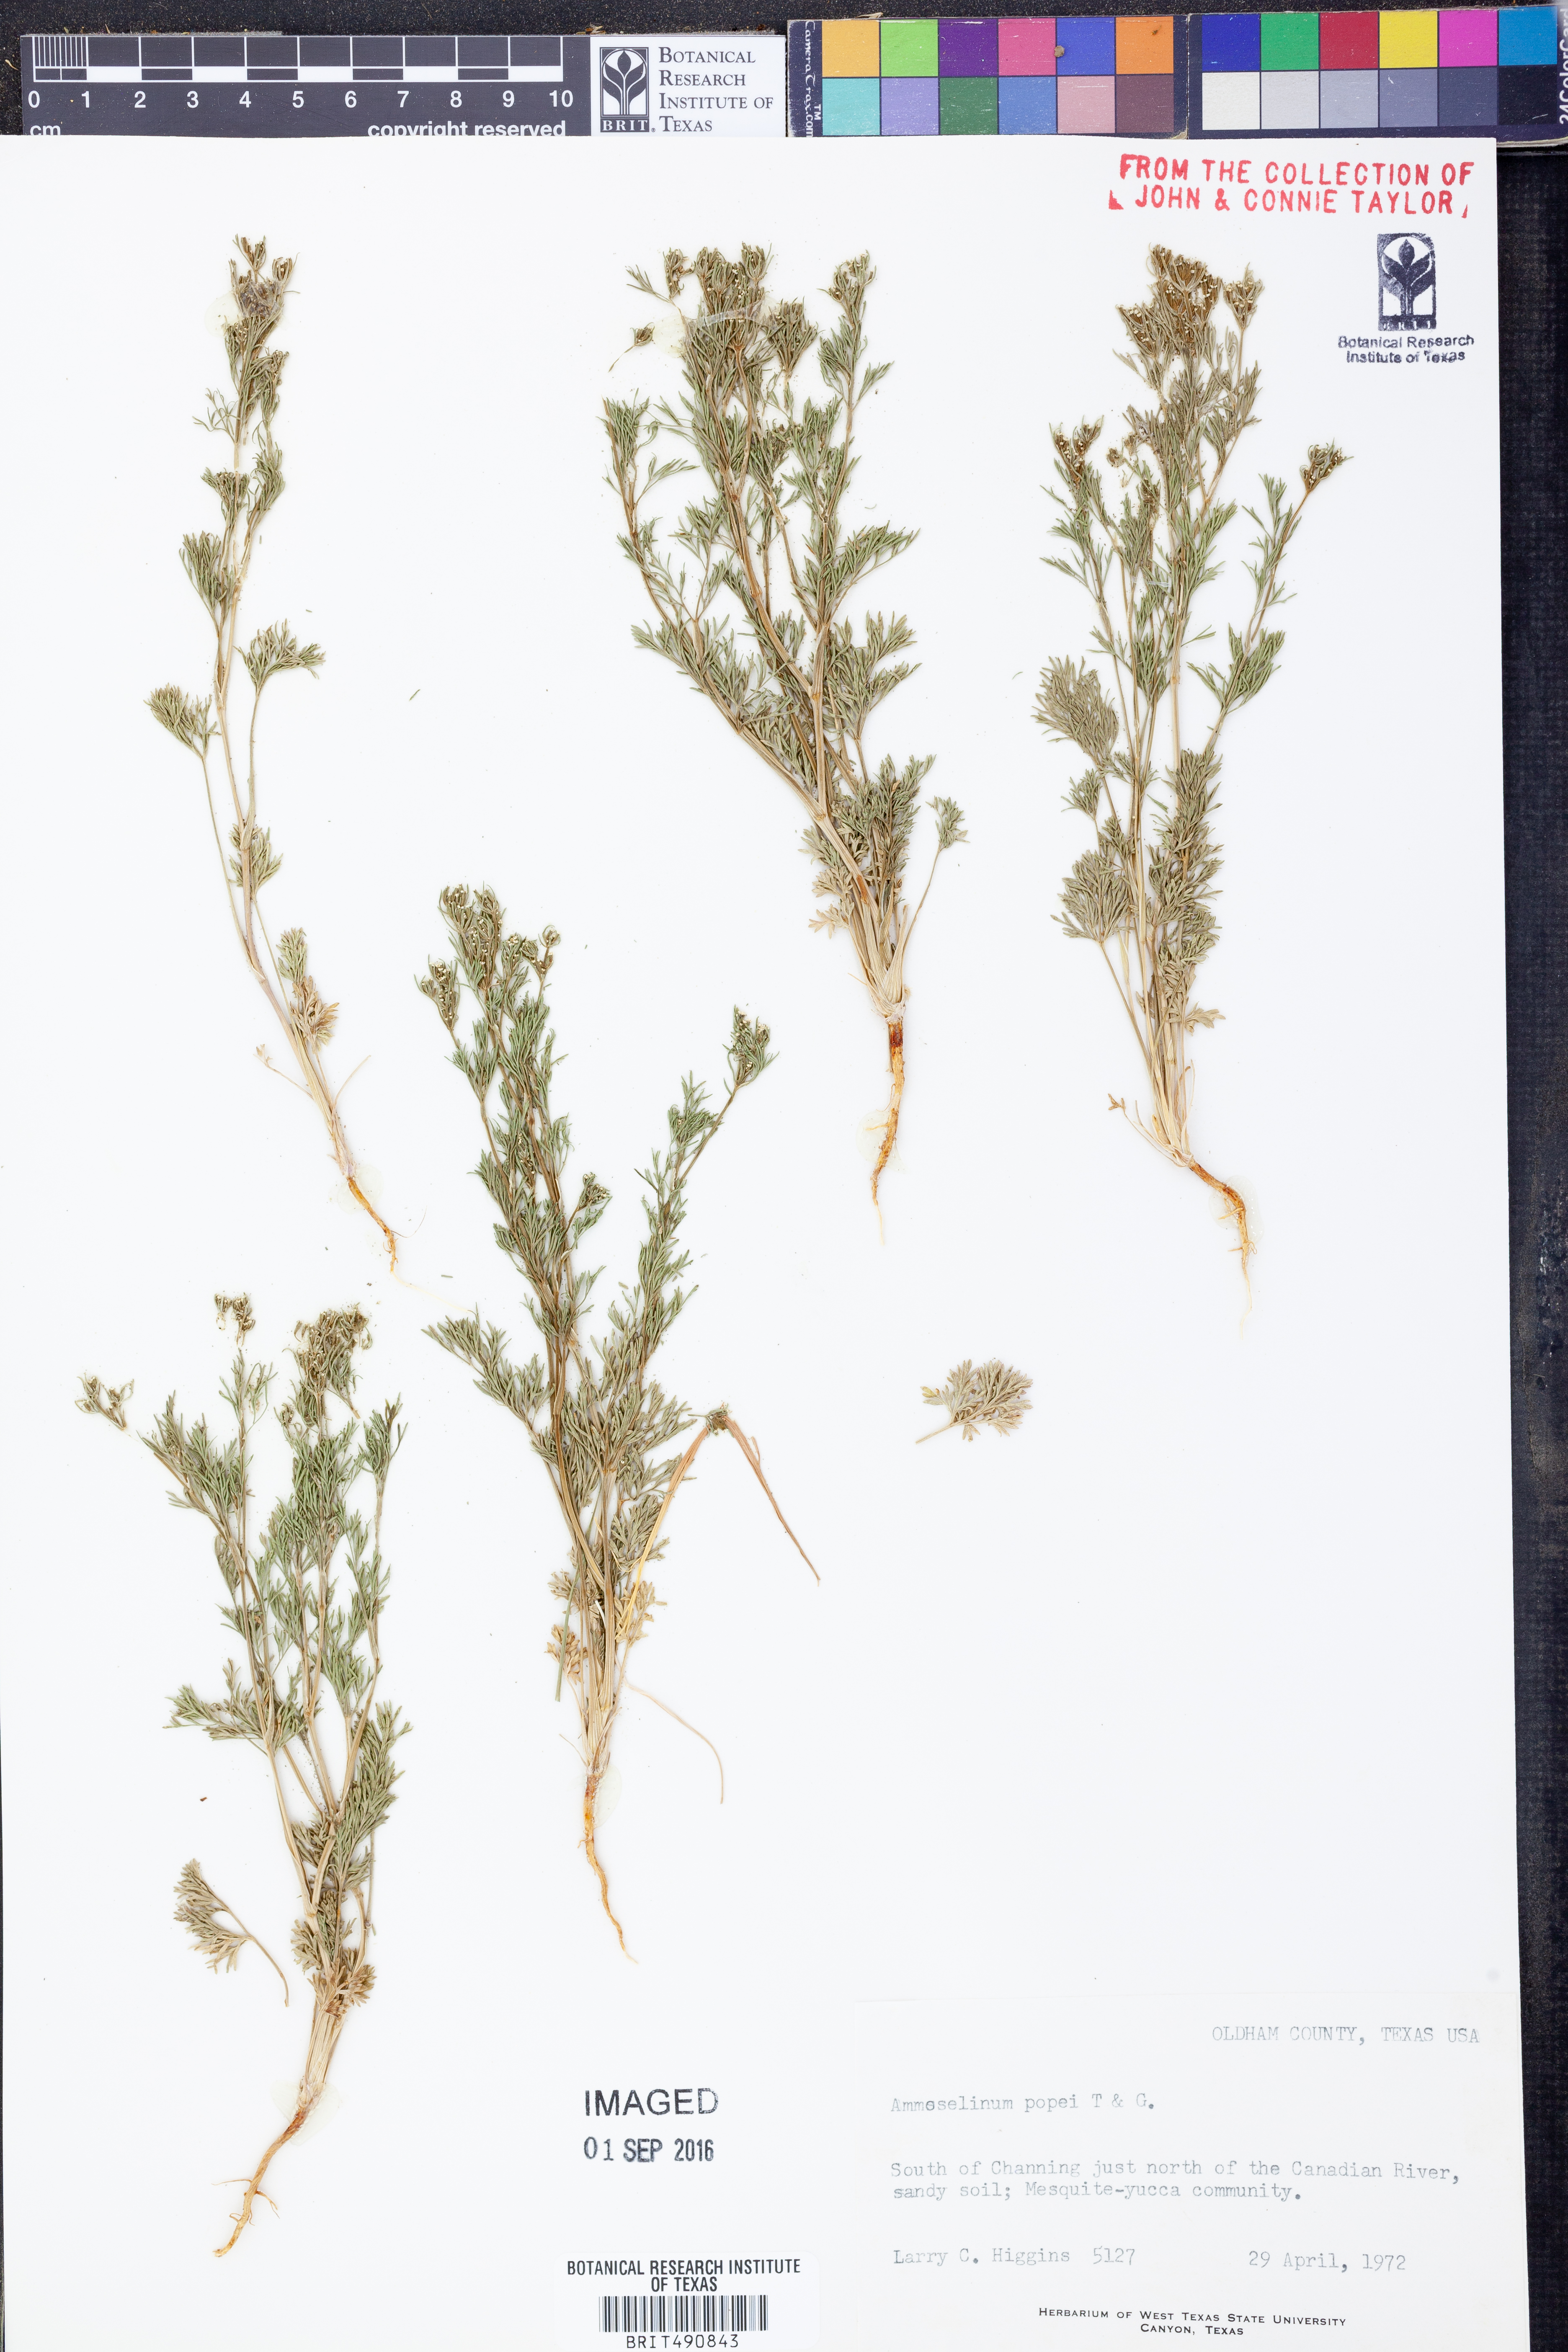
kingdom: Plantae
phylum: Tracheophyta
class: Magnoliopsida
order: Apiales
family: Apiaceae
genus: Ammoselinum
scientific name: Ammoselinum popei
